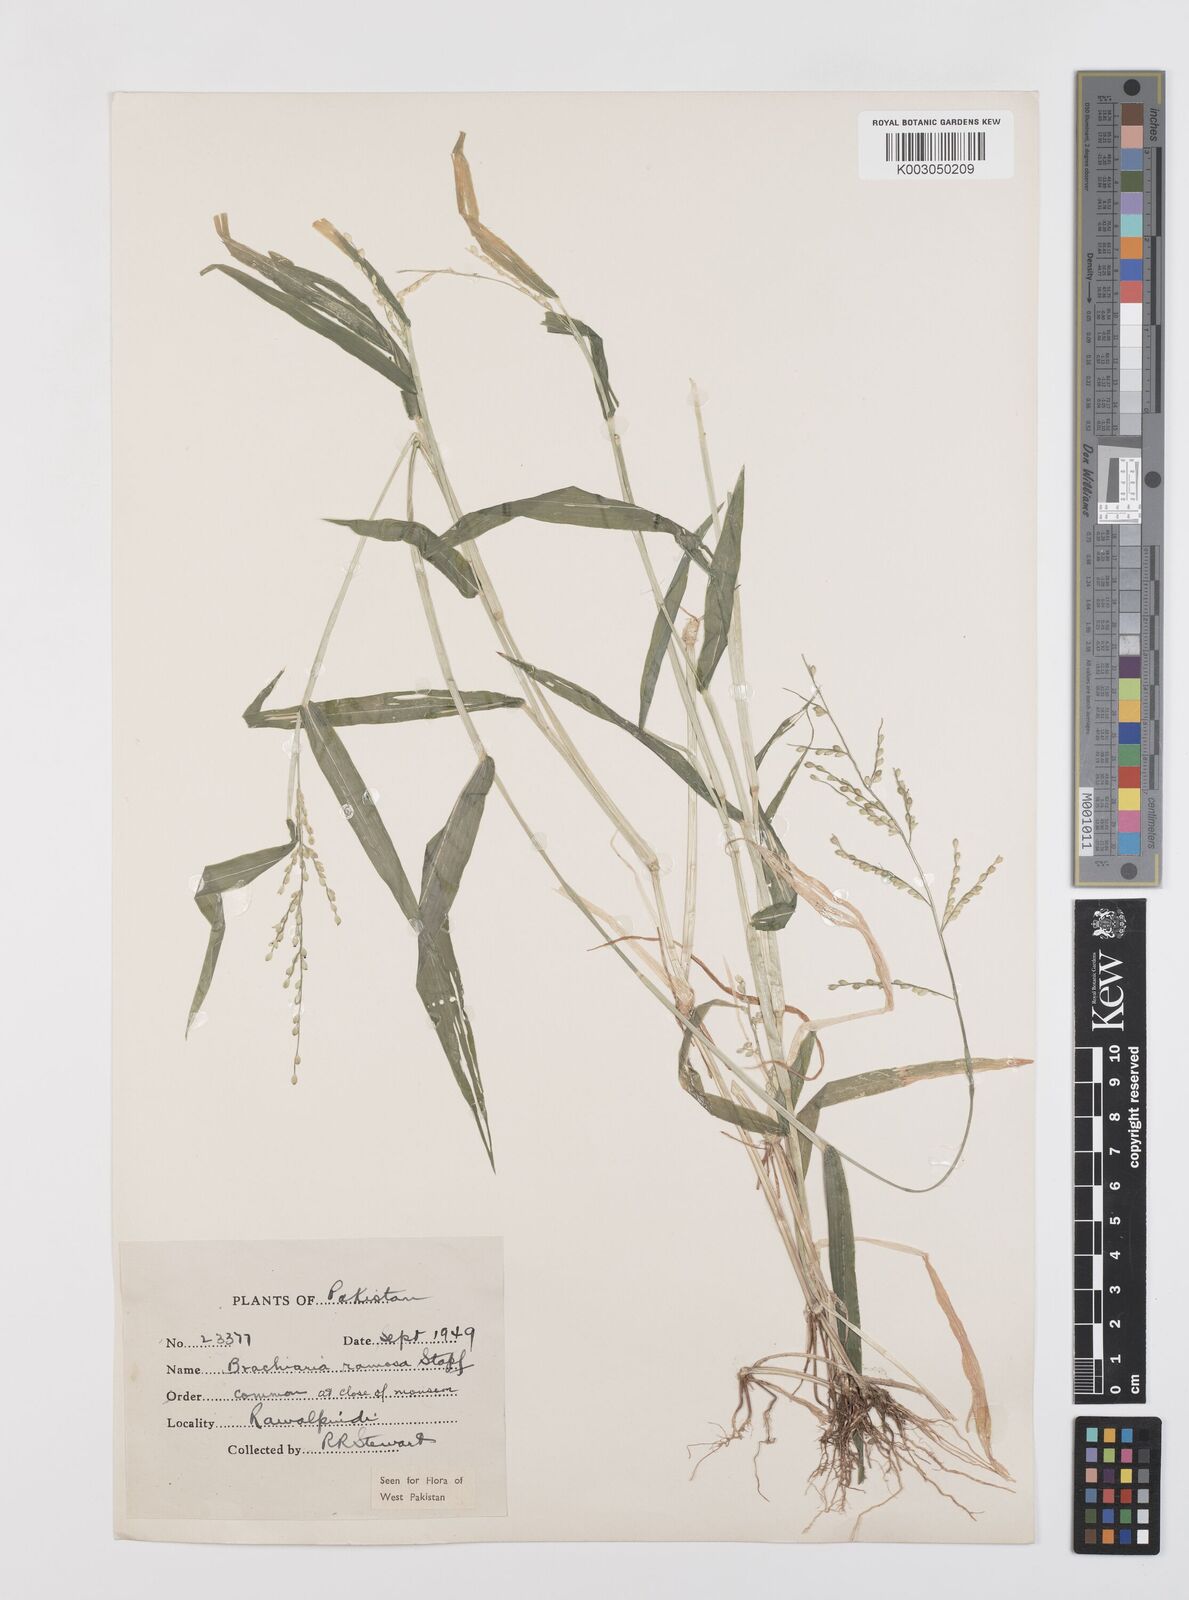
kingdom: Plantae
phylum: Tracheophyta
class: Liliopsida
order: Poales
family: Poaceae
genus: Urochloa
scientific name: Urochloa ramosa
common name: Browntop millet
